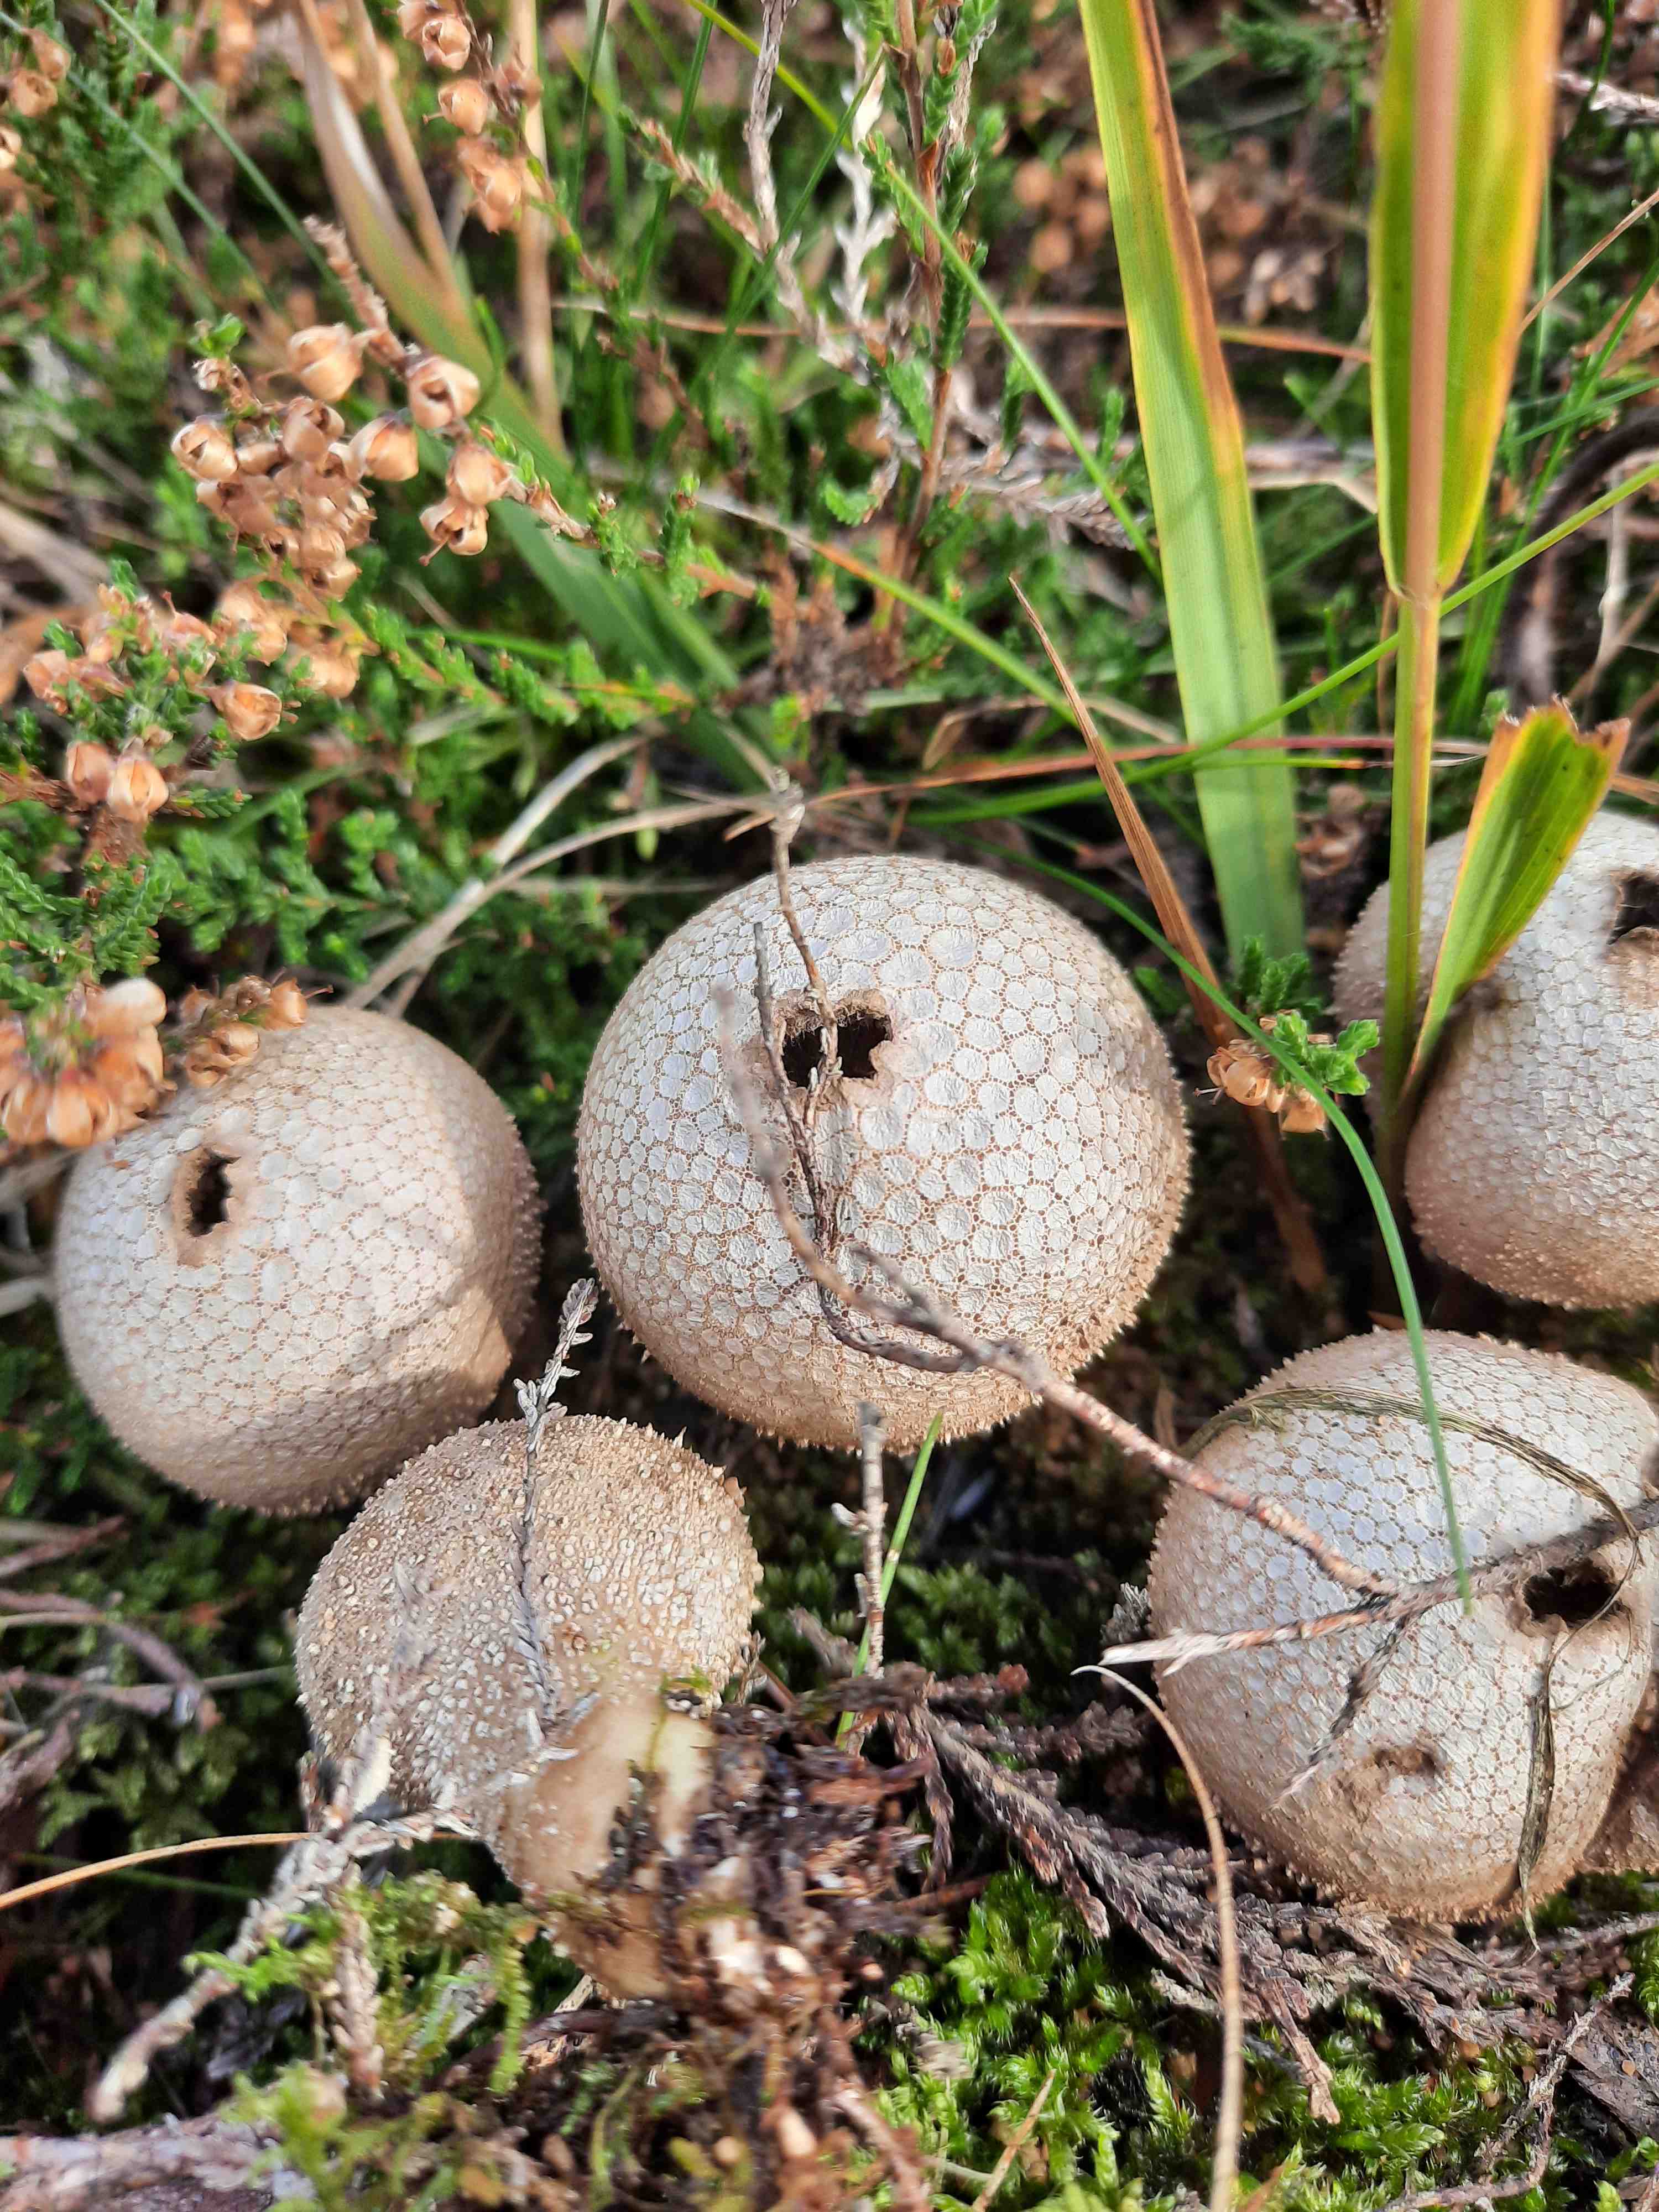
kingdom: Fungi
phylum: Basidiomycota
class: Agaricomycetes
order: Agaricales
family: Lycoperdaceae
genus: Lycoperdon
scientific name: Lycoperdon nigrescens
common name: sortagtig støvbold
